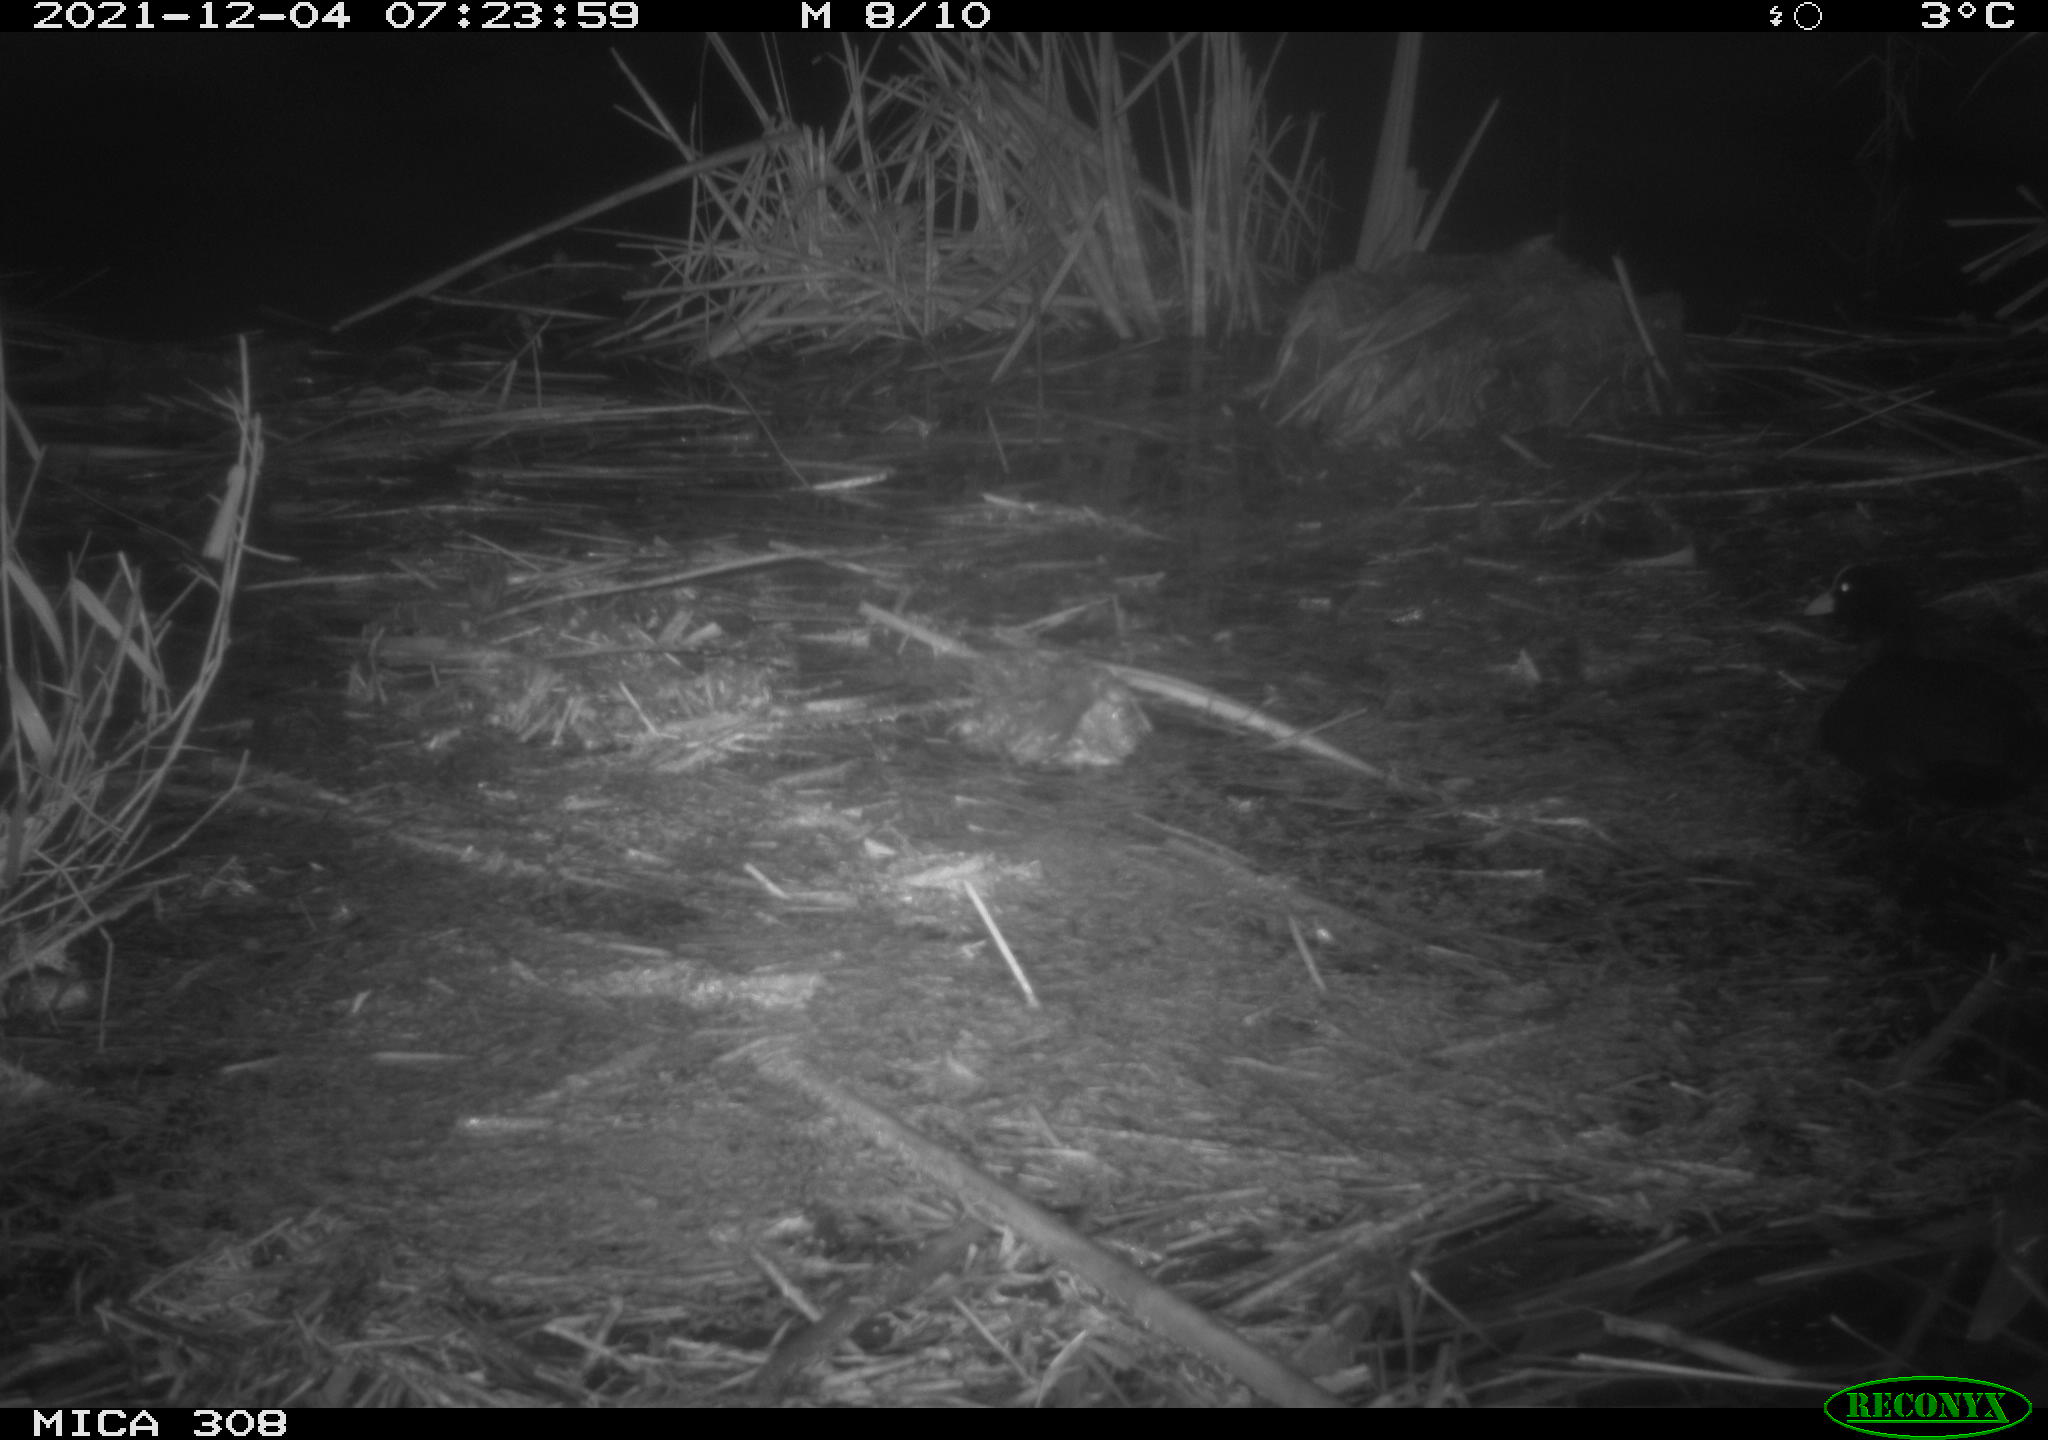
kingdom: Animalia
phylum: Chordata
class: Aves
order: Gruiformes
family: Rallidae
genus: Fulica
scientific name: Fulica atra
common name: Eurasian coot
